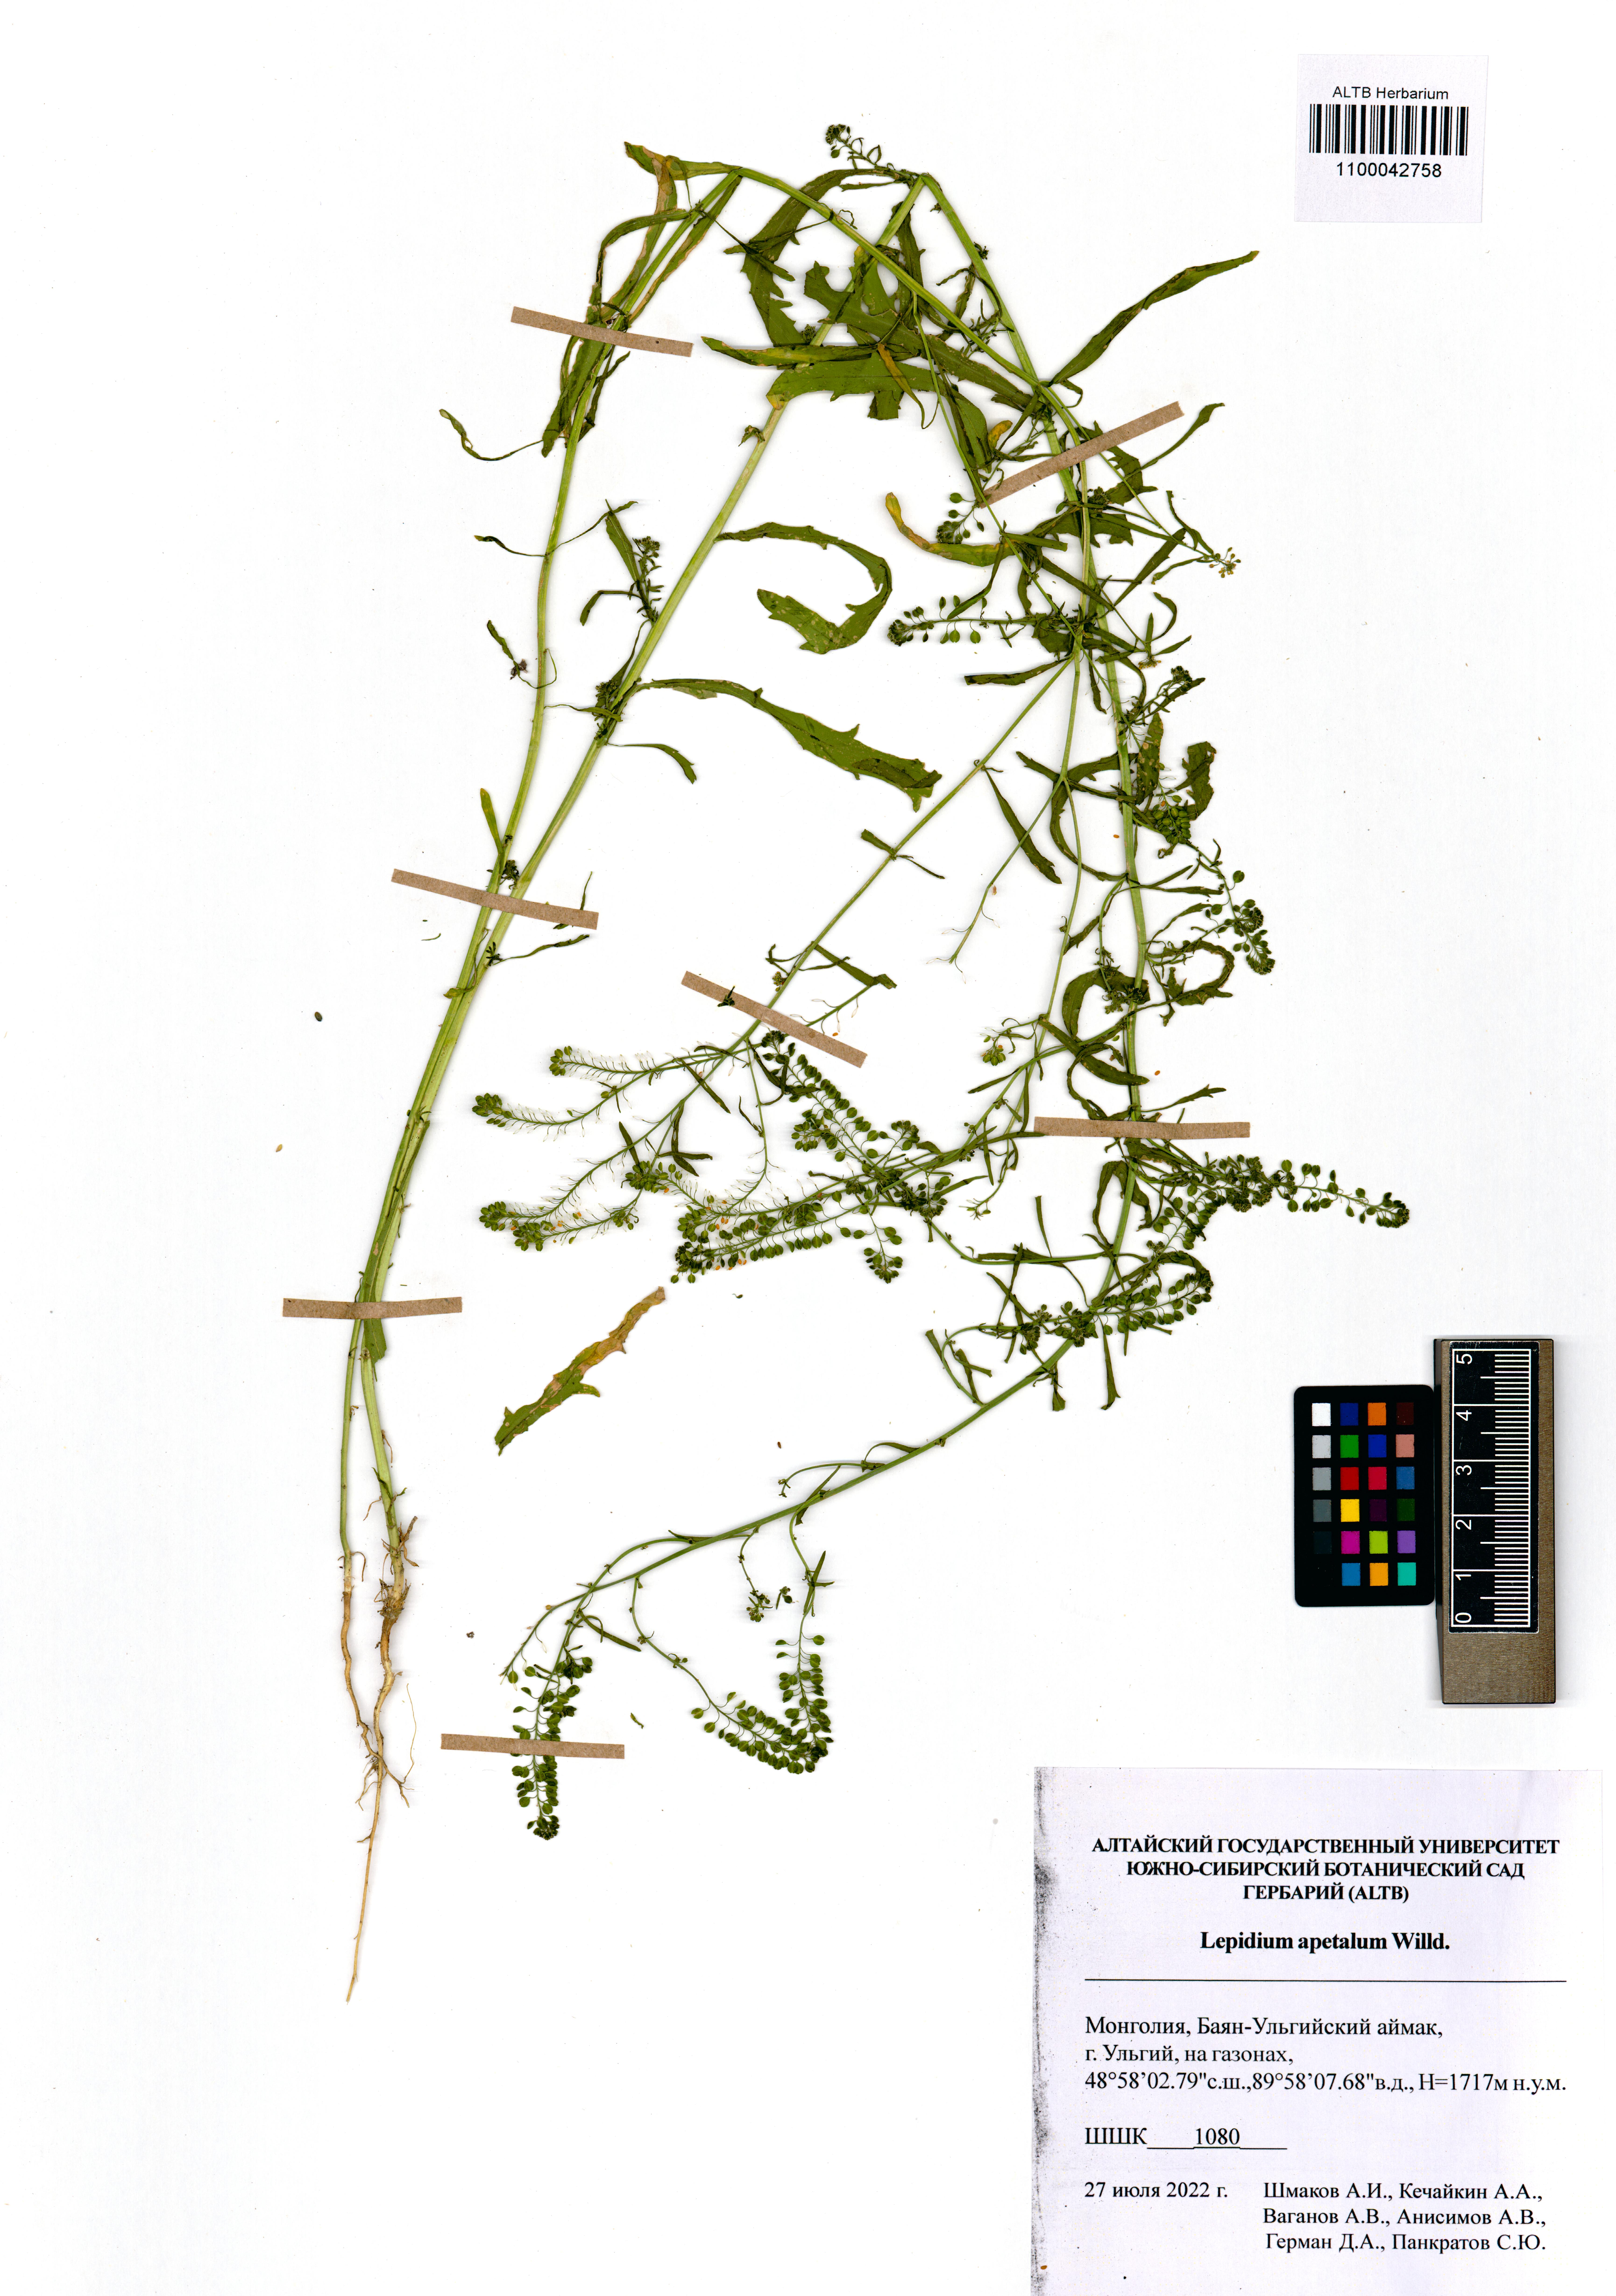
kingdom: Plantae
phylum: Tracheophyta
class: Magnoliopsida
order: Brassicales
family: Brassicaceae
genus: Lepidium
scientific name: Lepidium apetalum
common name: Pepperweed
